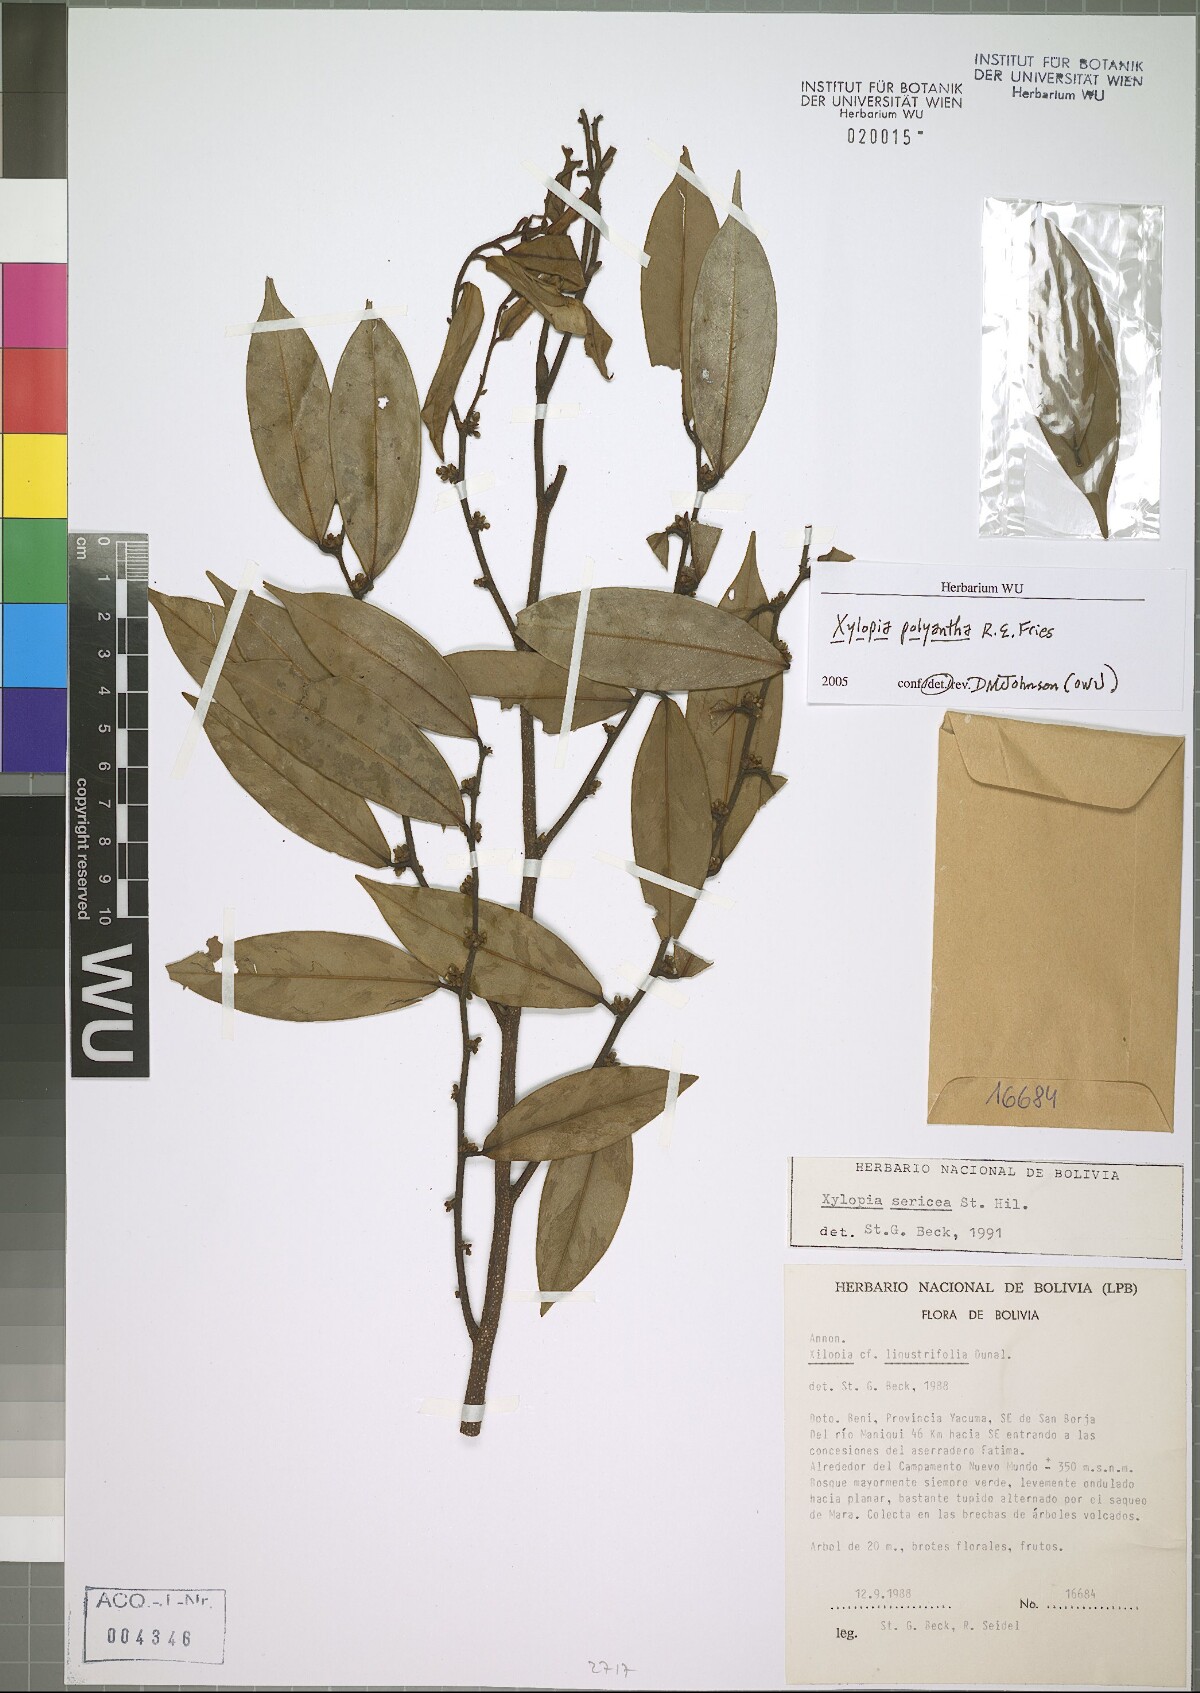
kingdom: Plantae
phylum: Tracheophyta
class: Magnoliopsida
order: Magnoliales
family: Annonaceae
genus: Xylopia
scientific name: Xylopia polyantha
